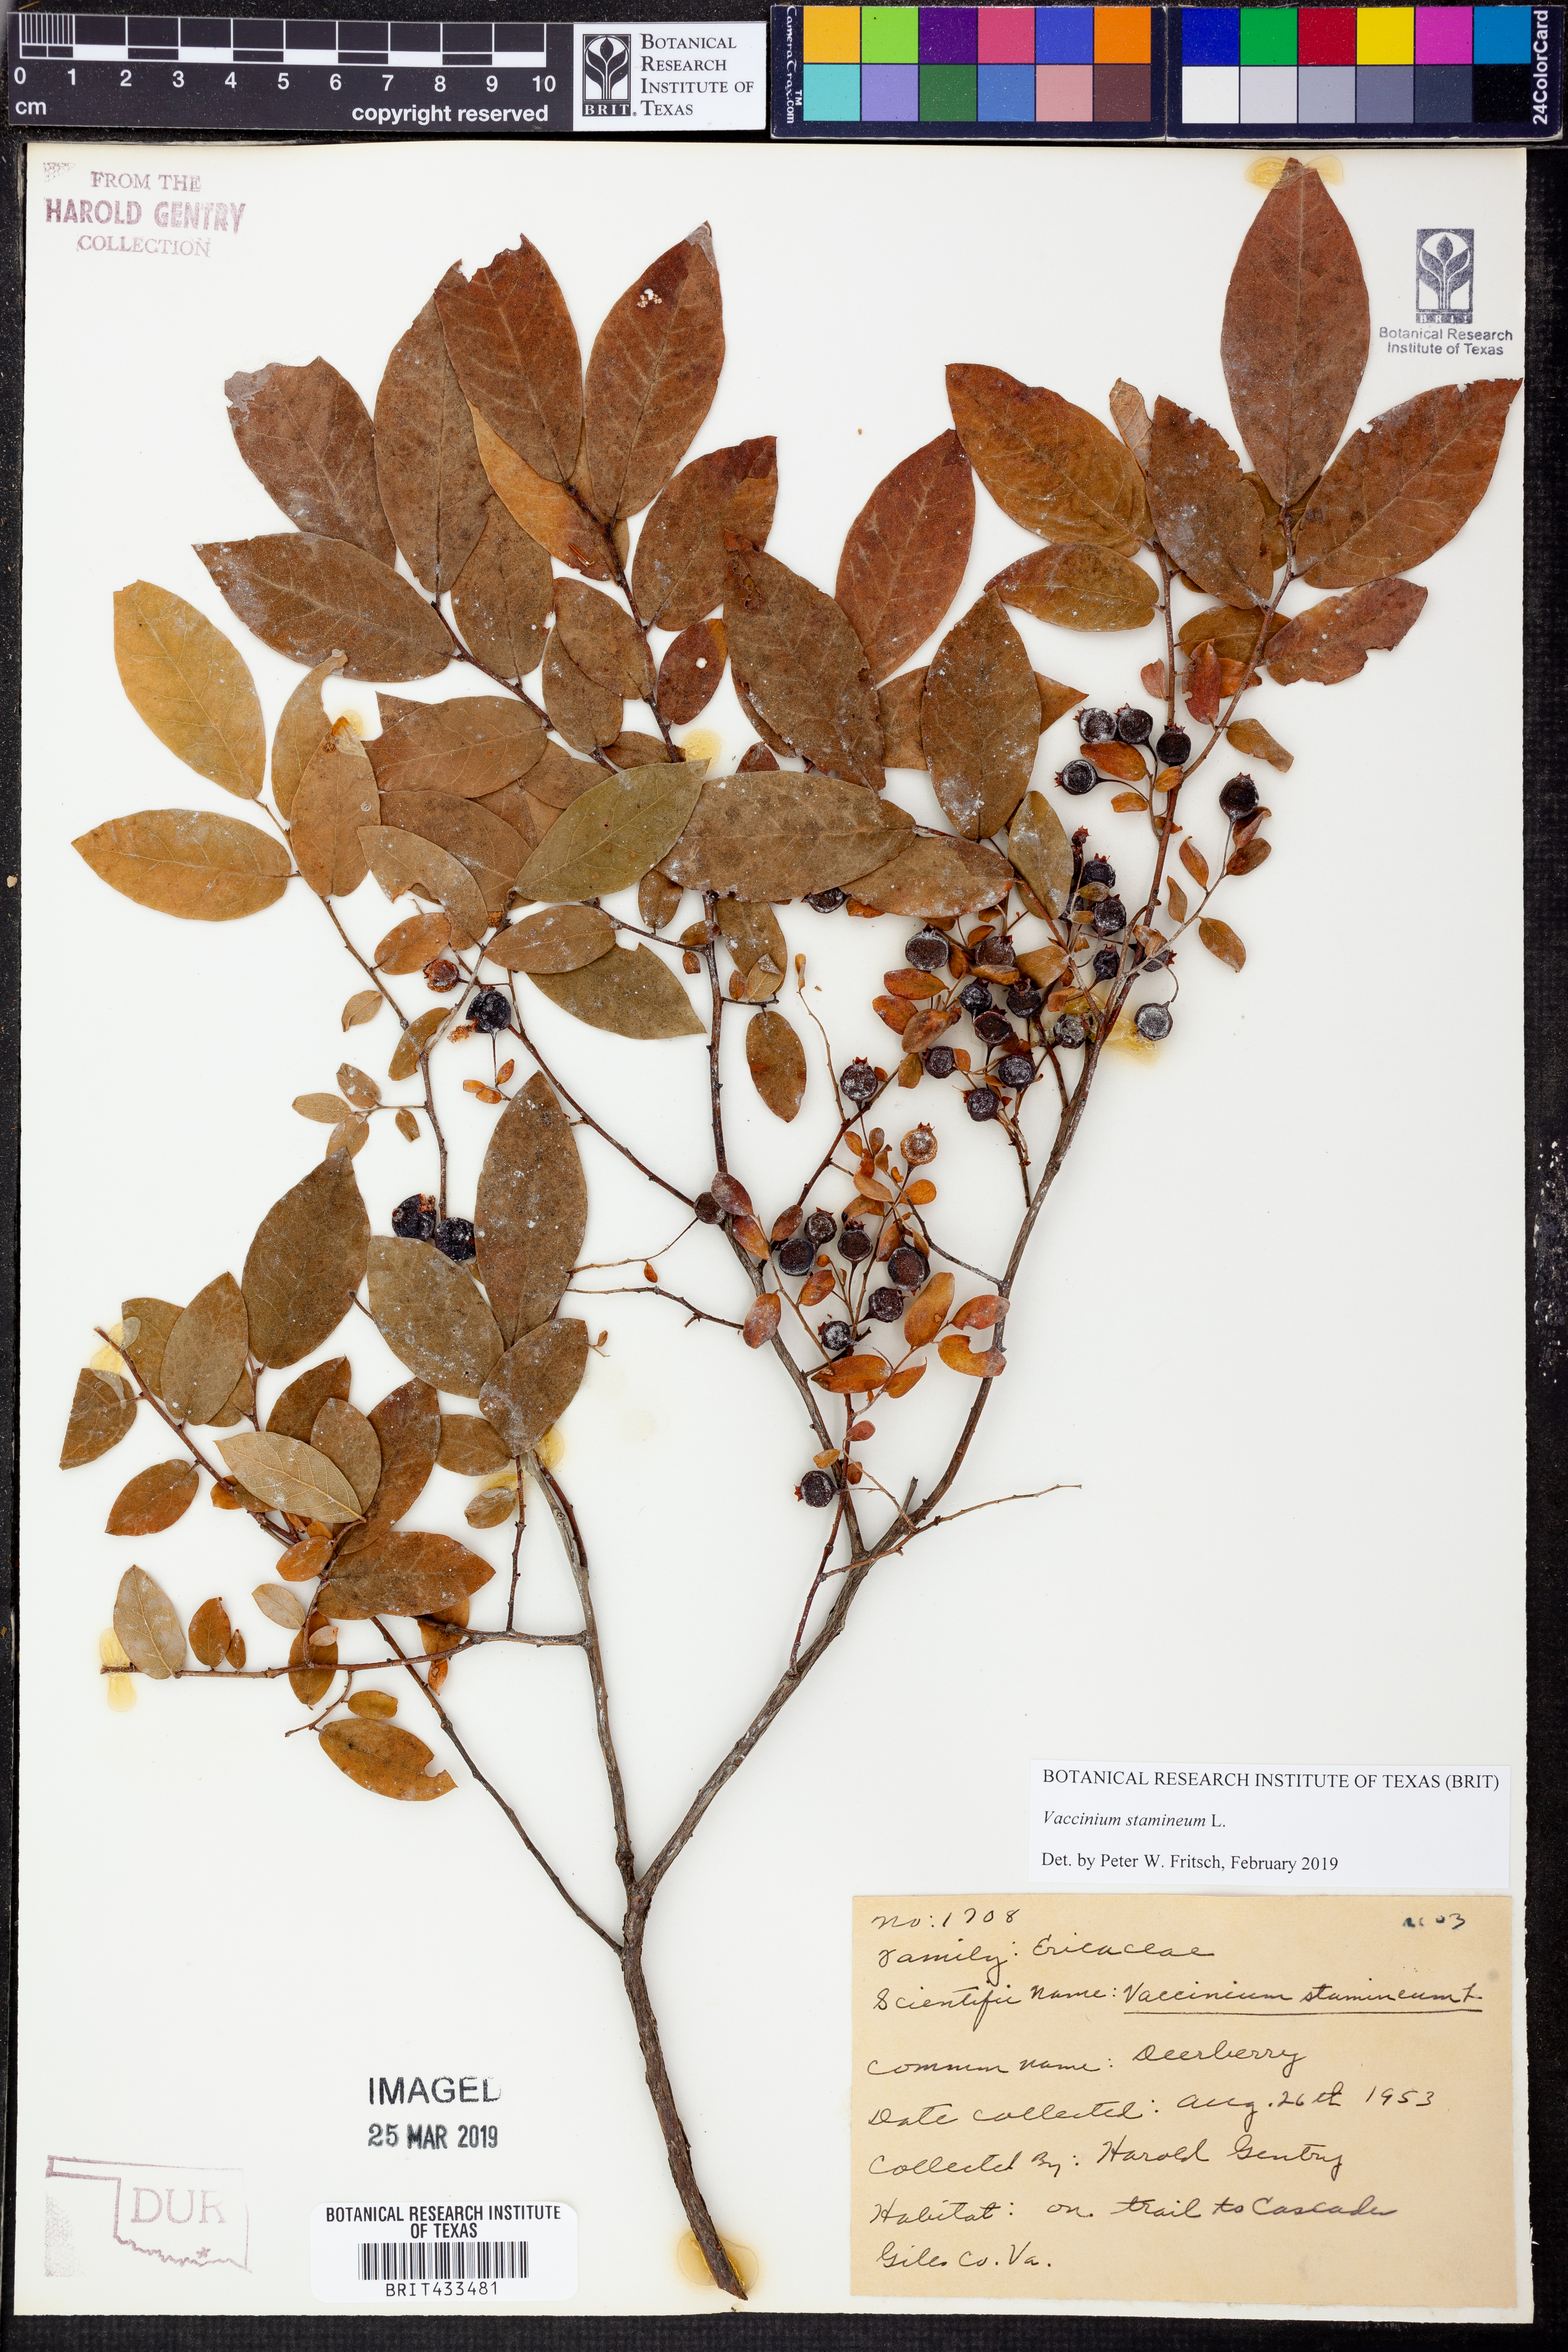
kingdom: Plantae
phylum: Tracheophyta
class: Magnoliopsida
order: Ericales
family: Ericaceae
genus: Vaccinium
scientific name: Vaccinium stamineum
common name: Deerberry
